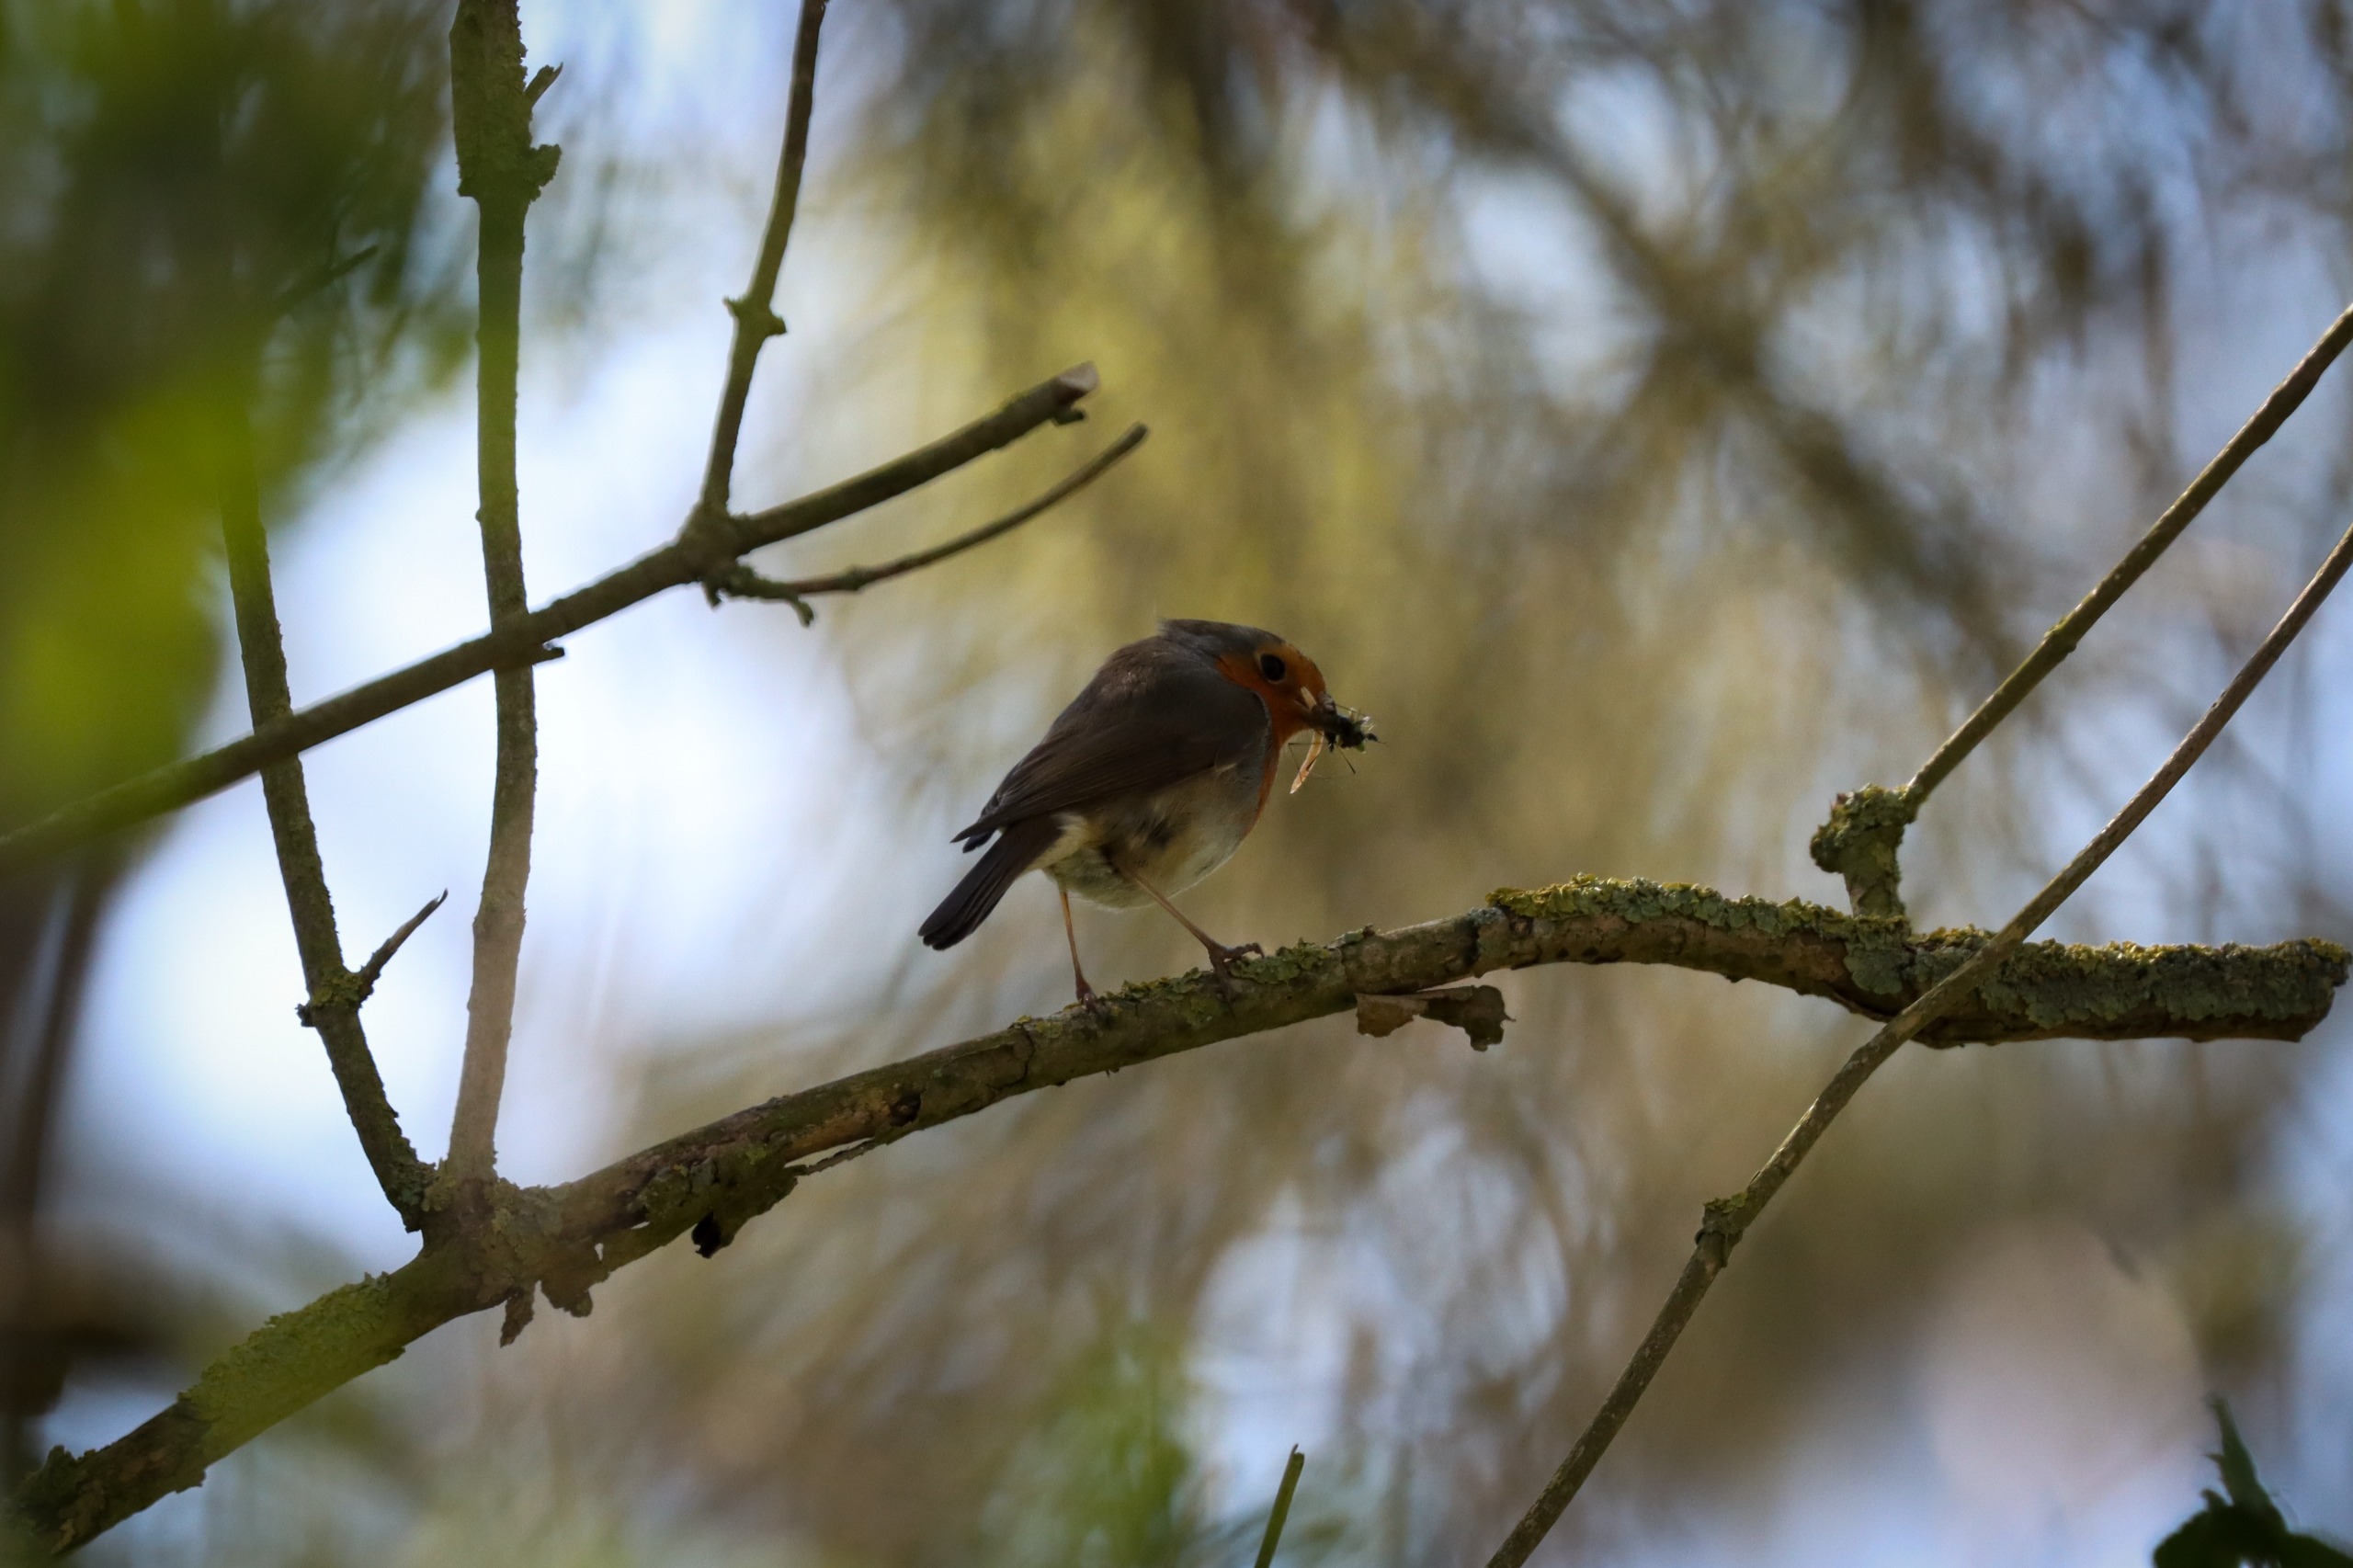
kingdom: Animalia
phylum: Chordata
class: Aves
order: Passeriformes
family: Muscicapidae
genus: Erithacus
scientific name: Erithacus rubecula
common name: Rødhals/rødkælk
